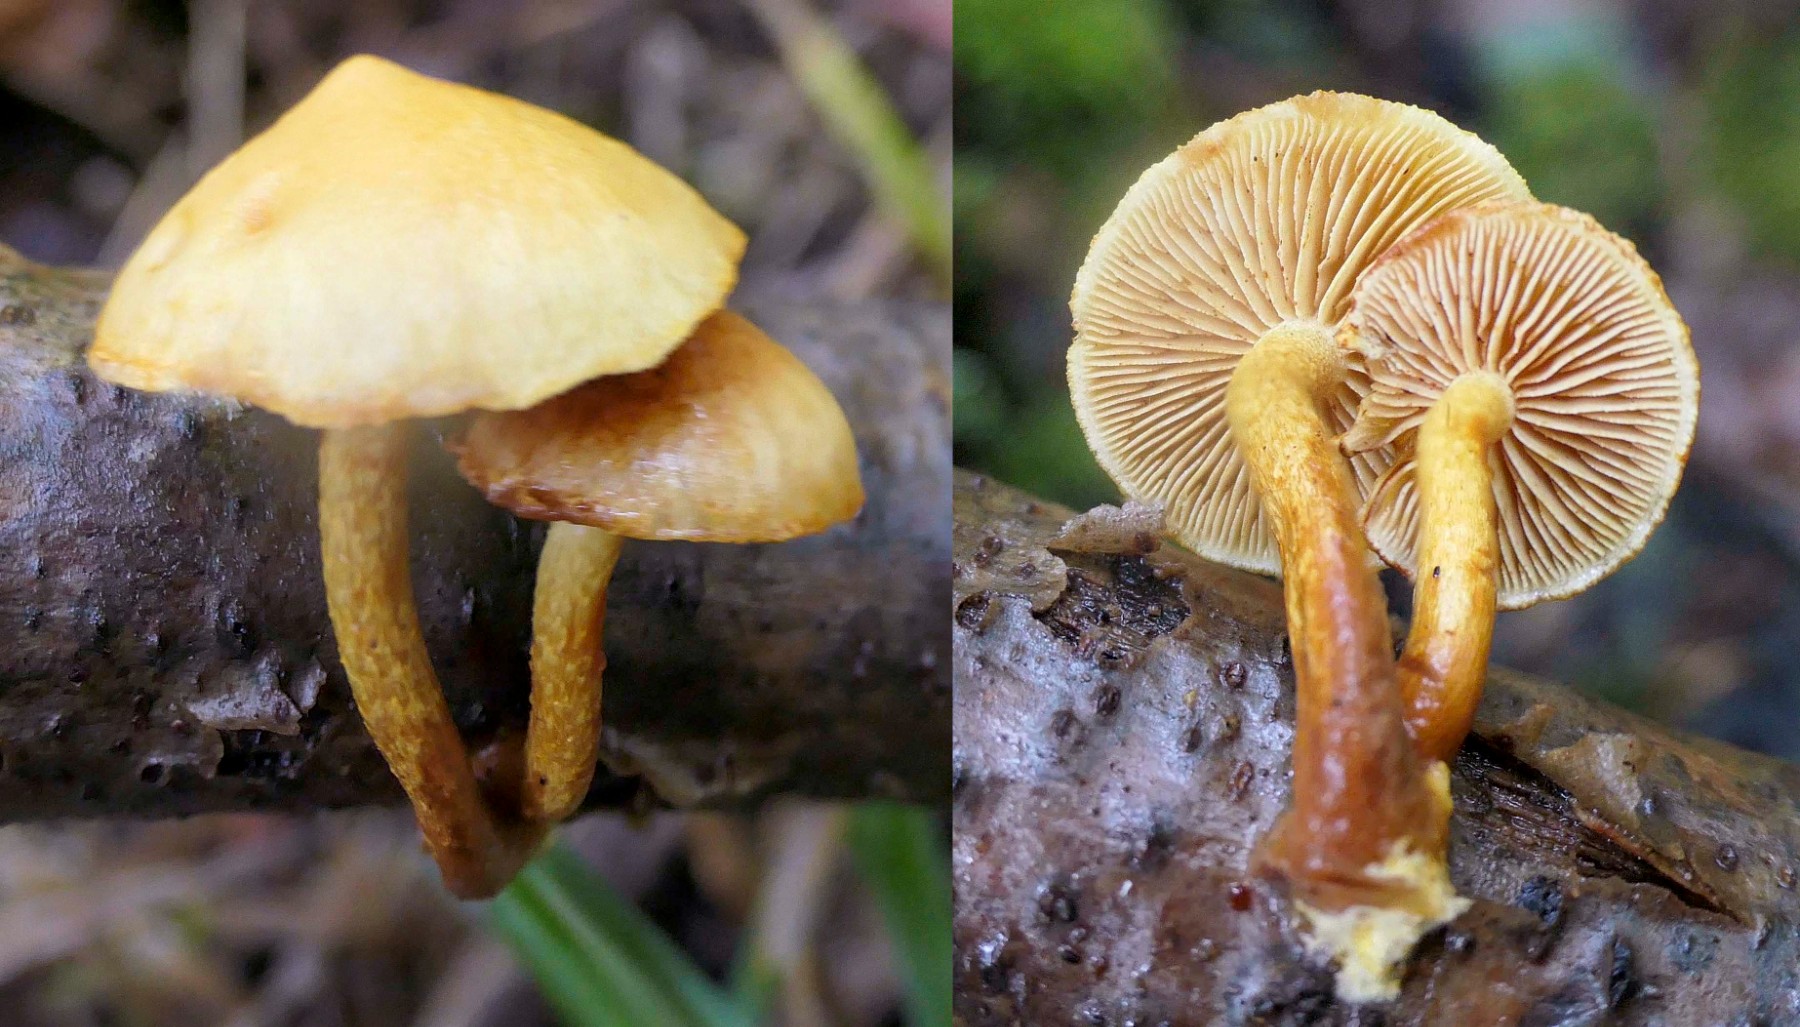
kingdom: Fungi
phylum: Basidiomycota
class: Agaricomycetes
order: Agaricales
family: Strophariaceae
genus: Pholiota
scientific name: Pholiota tuberculosa
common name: finskællet skælhat
